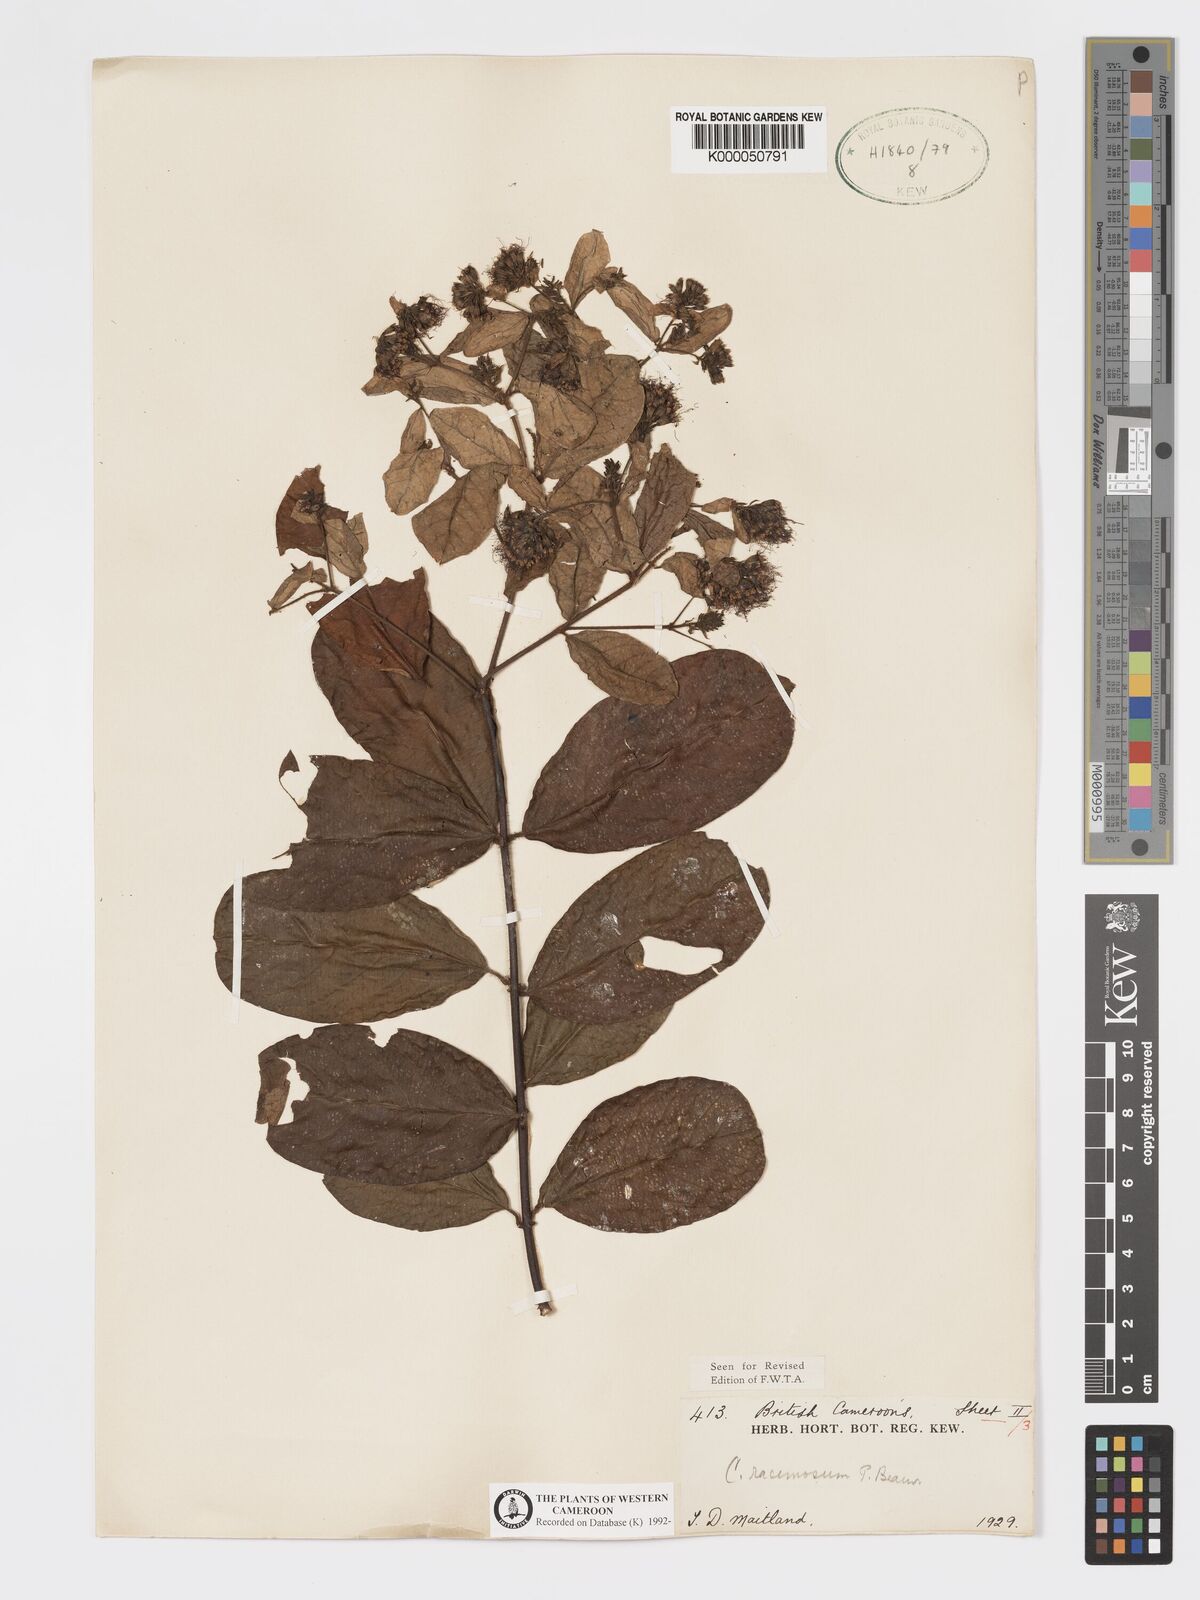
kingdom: Plantae
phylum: Tracheophyta
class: Magnoliopsida
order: Myrtales
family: Combretaceae
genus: Combretum
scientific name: Combretum racemosum
